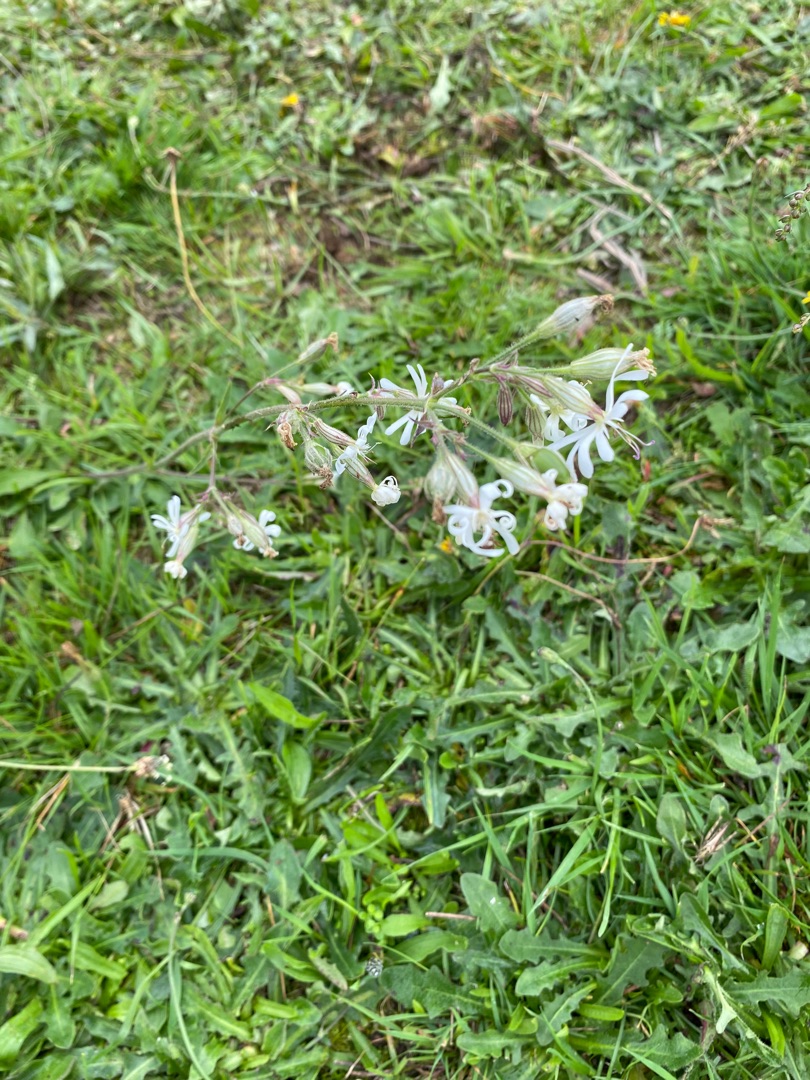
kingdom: Plantae
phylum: Tracheophyta
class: Magnoliopsida
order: Caryophyllales
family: Caryophyllaceae
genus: Silene
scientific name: Silene nutans
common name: Nikkende limurt
